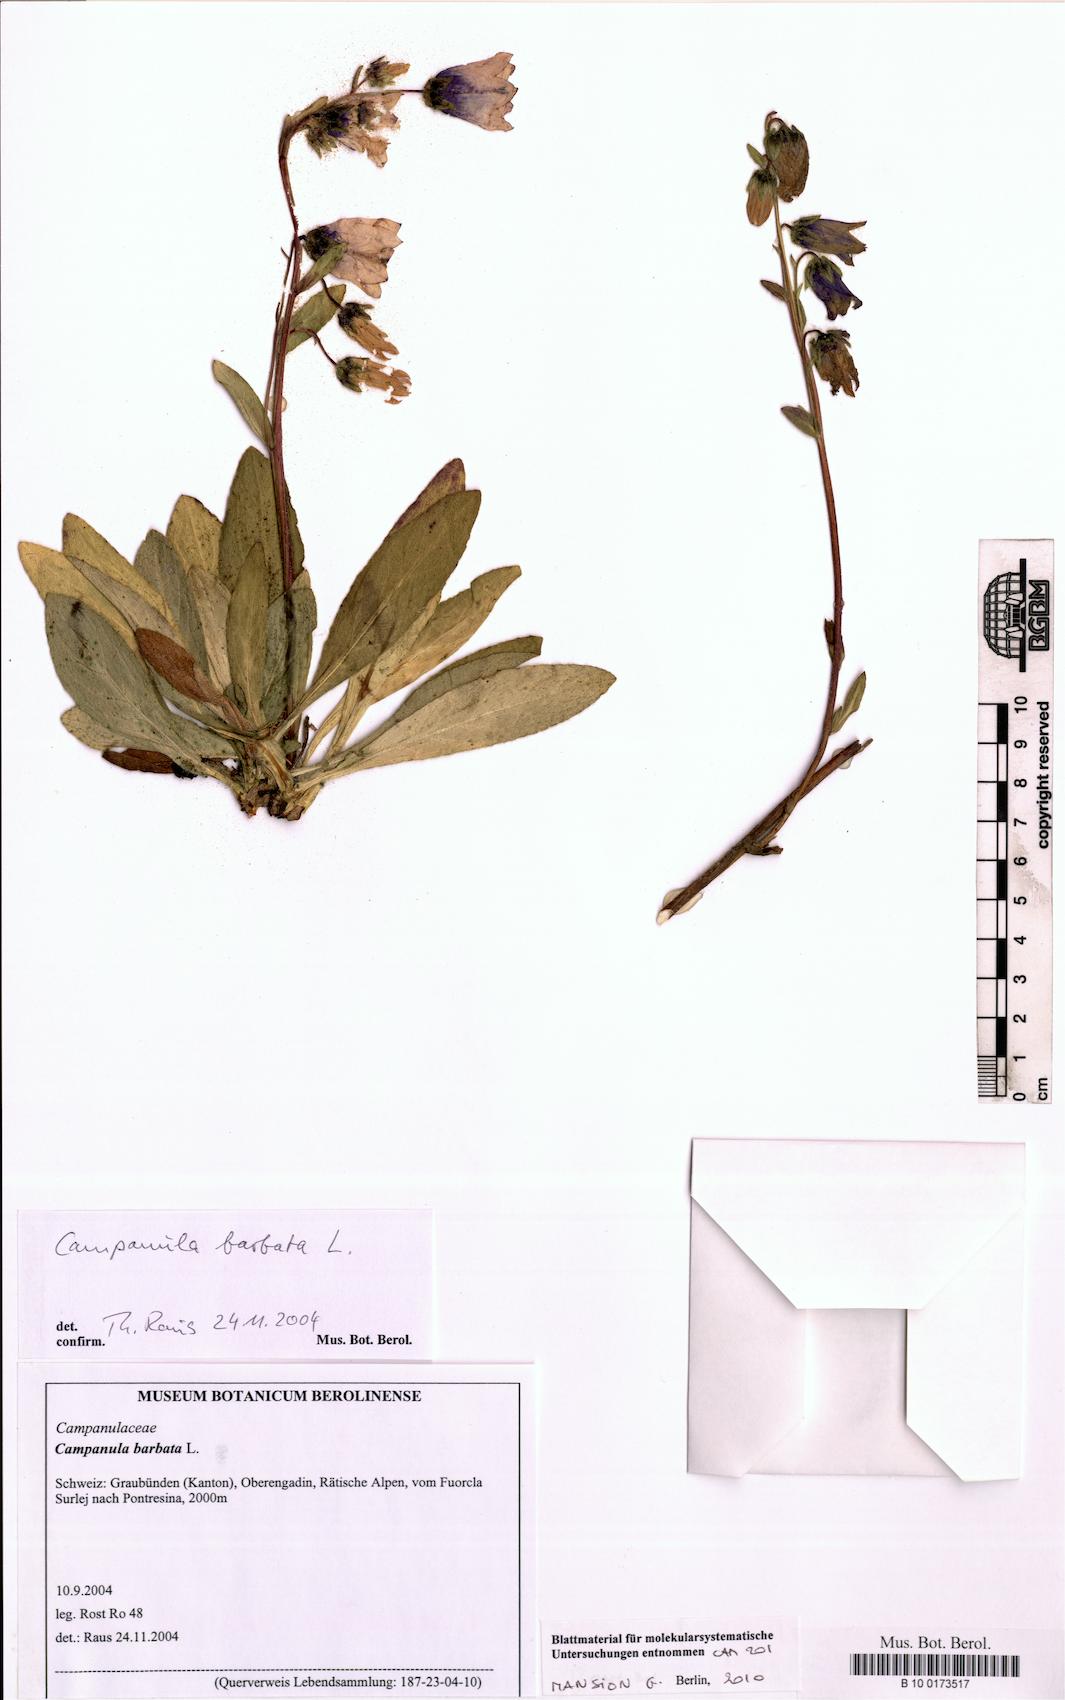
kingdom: Plantae
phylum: Tracheophyta
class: Magnoliopsida
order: Asterales
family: Campanulaceae
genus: Campanula
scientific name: Campanula barbata
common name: Bearded bellflower
